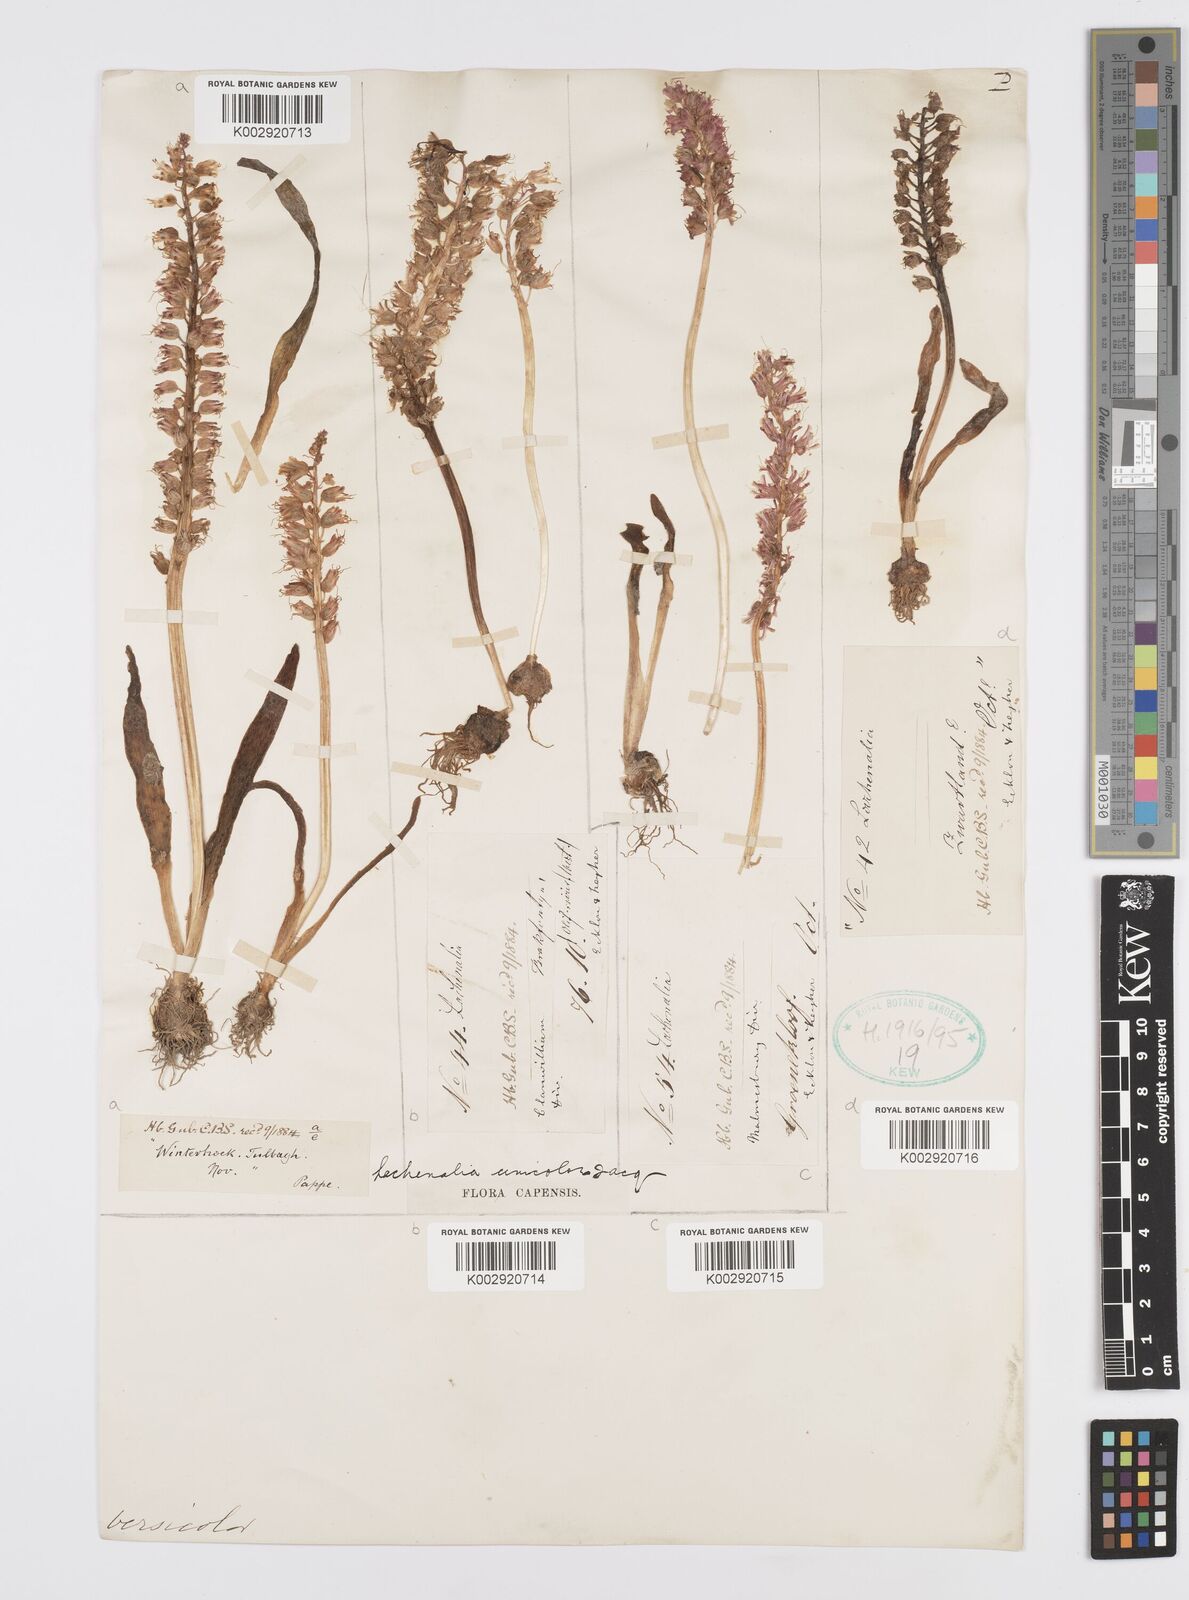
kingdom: Plantae
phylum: Tracheophyta
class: Liliopsida
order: Asparagales
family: Asparagaceae
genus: Lachenalia
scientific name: Lachenalia pallida
